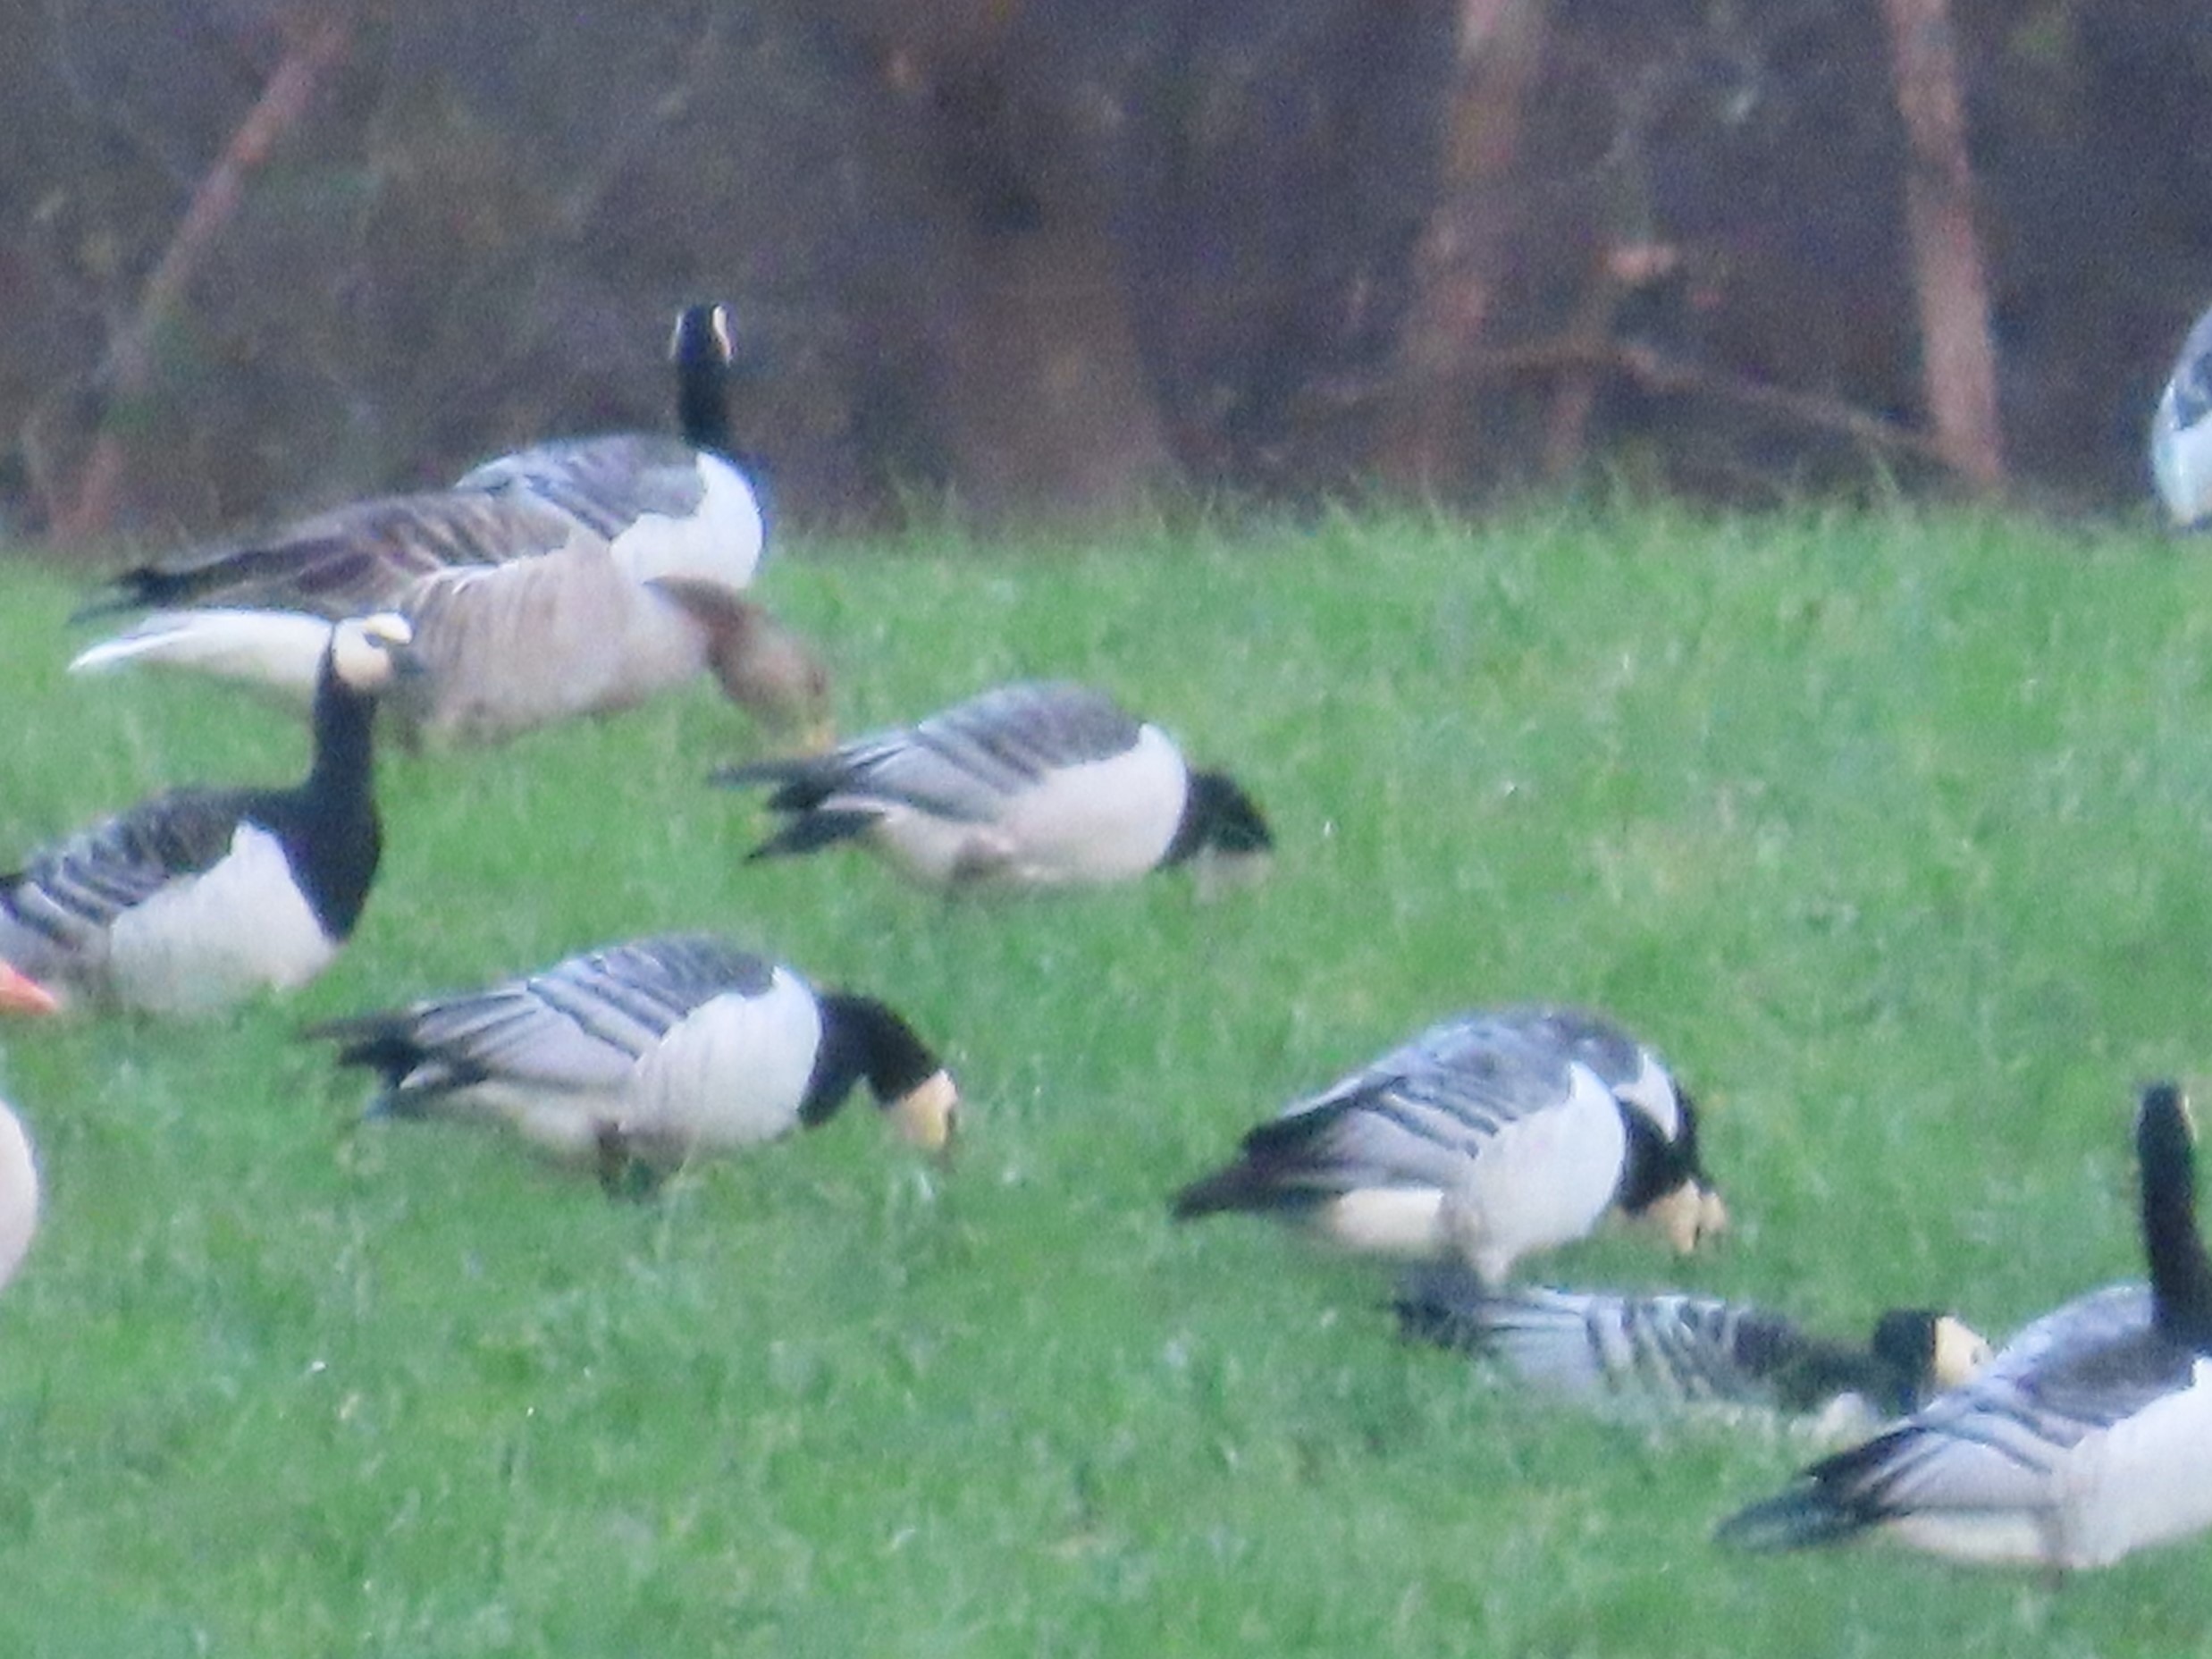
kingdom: Animalia
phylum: Chordata
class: Aves
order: Anseriformes
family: Anatidae
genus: Branta
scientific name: Branta leucopsis
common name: Bramgås
